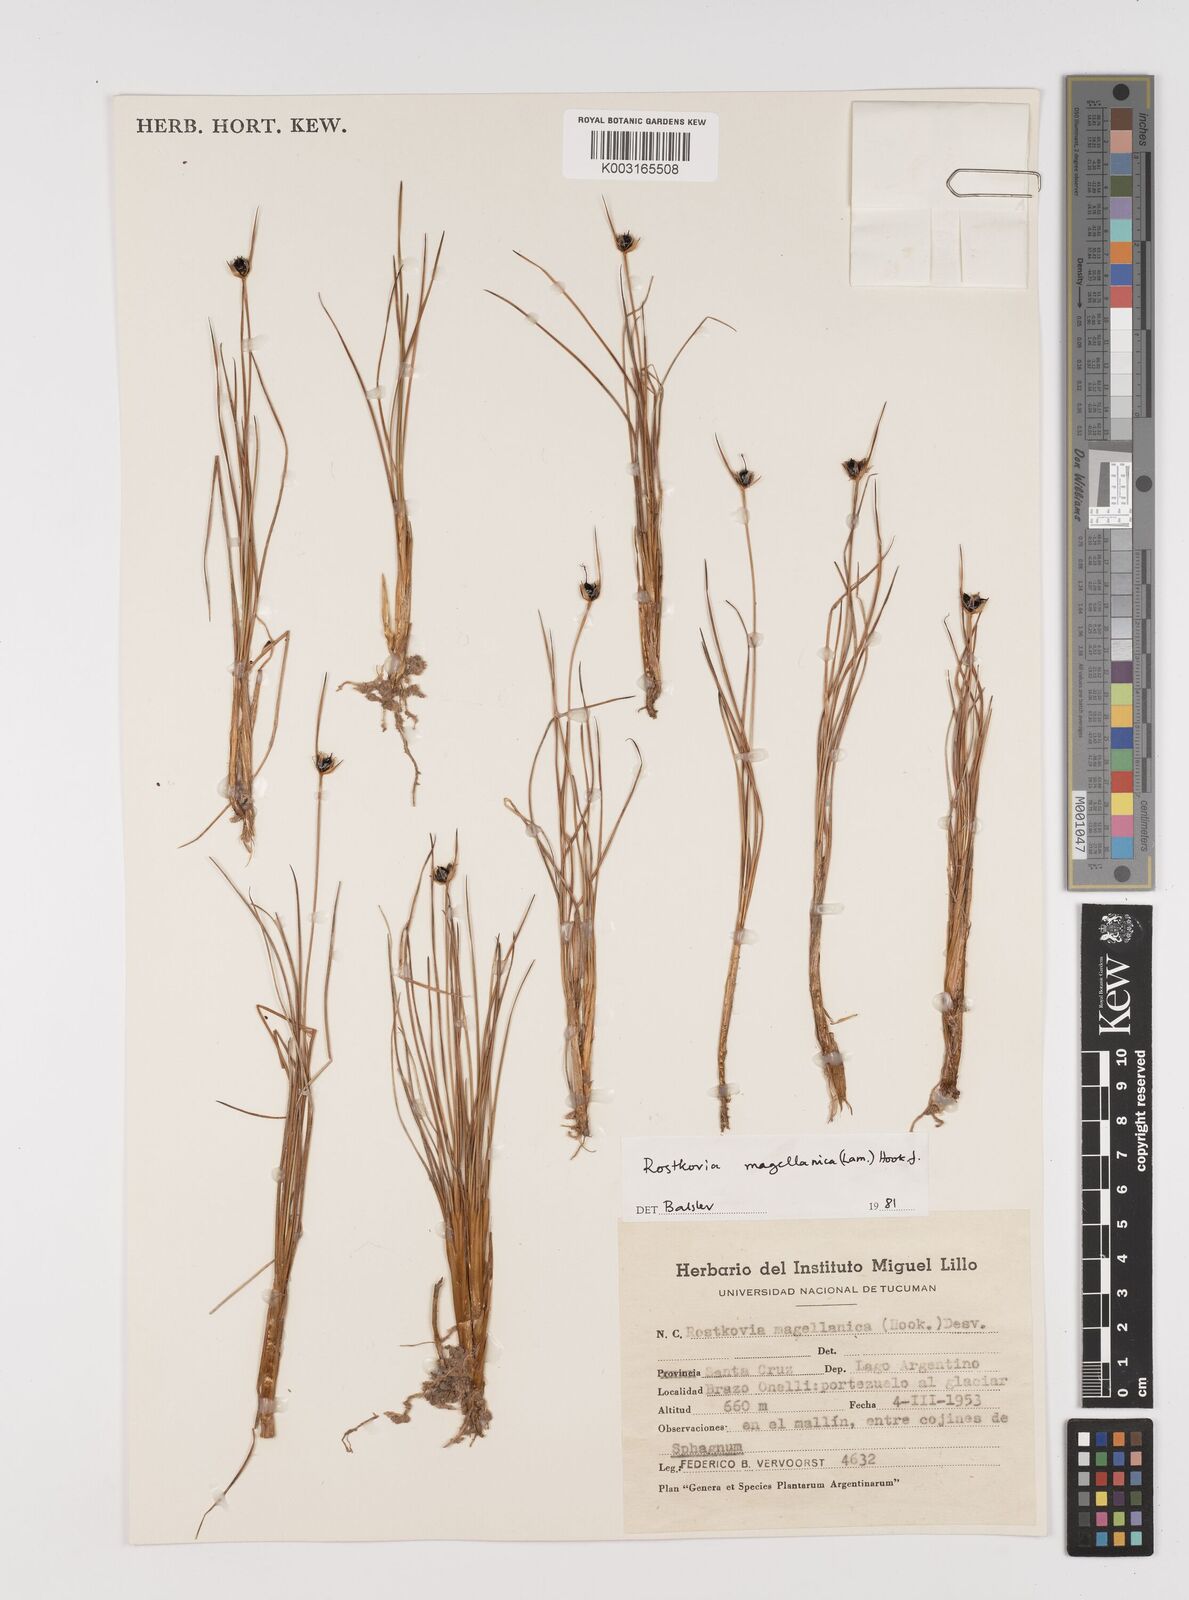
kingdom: Plantae
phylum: Tracheophyta
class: Liliopsida
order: Poales
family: Juncaceae
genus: Rostkovia
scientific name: Rostkovia magellanica
